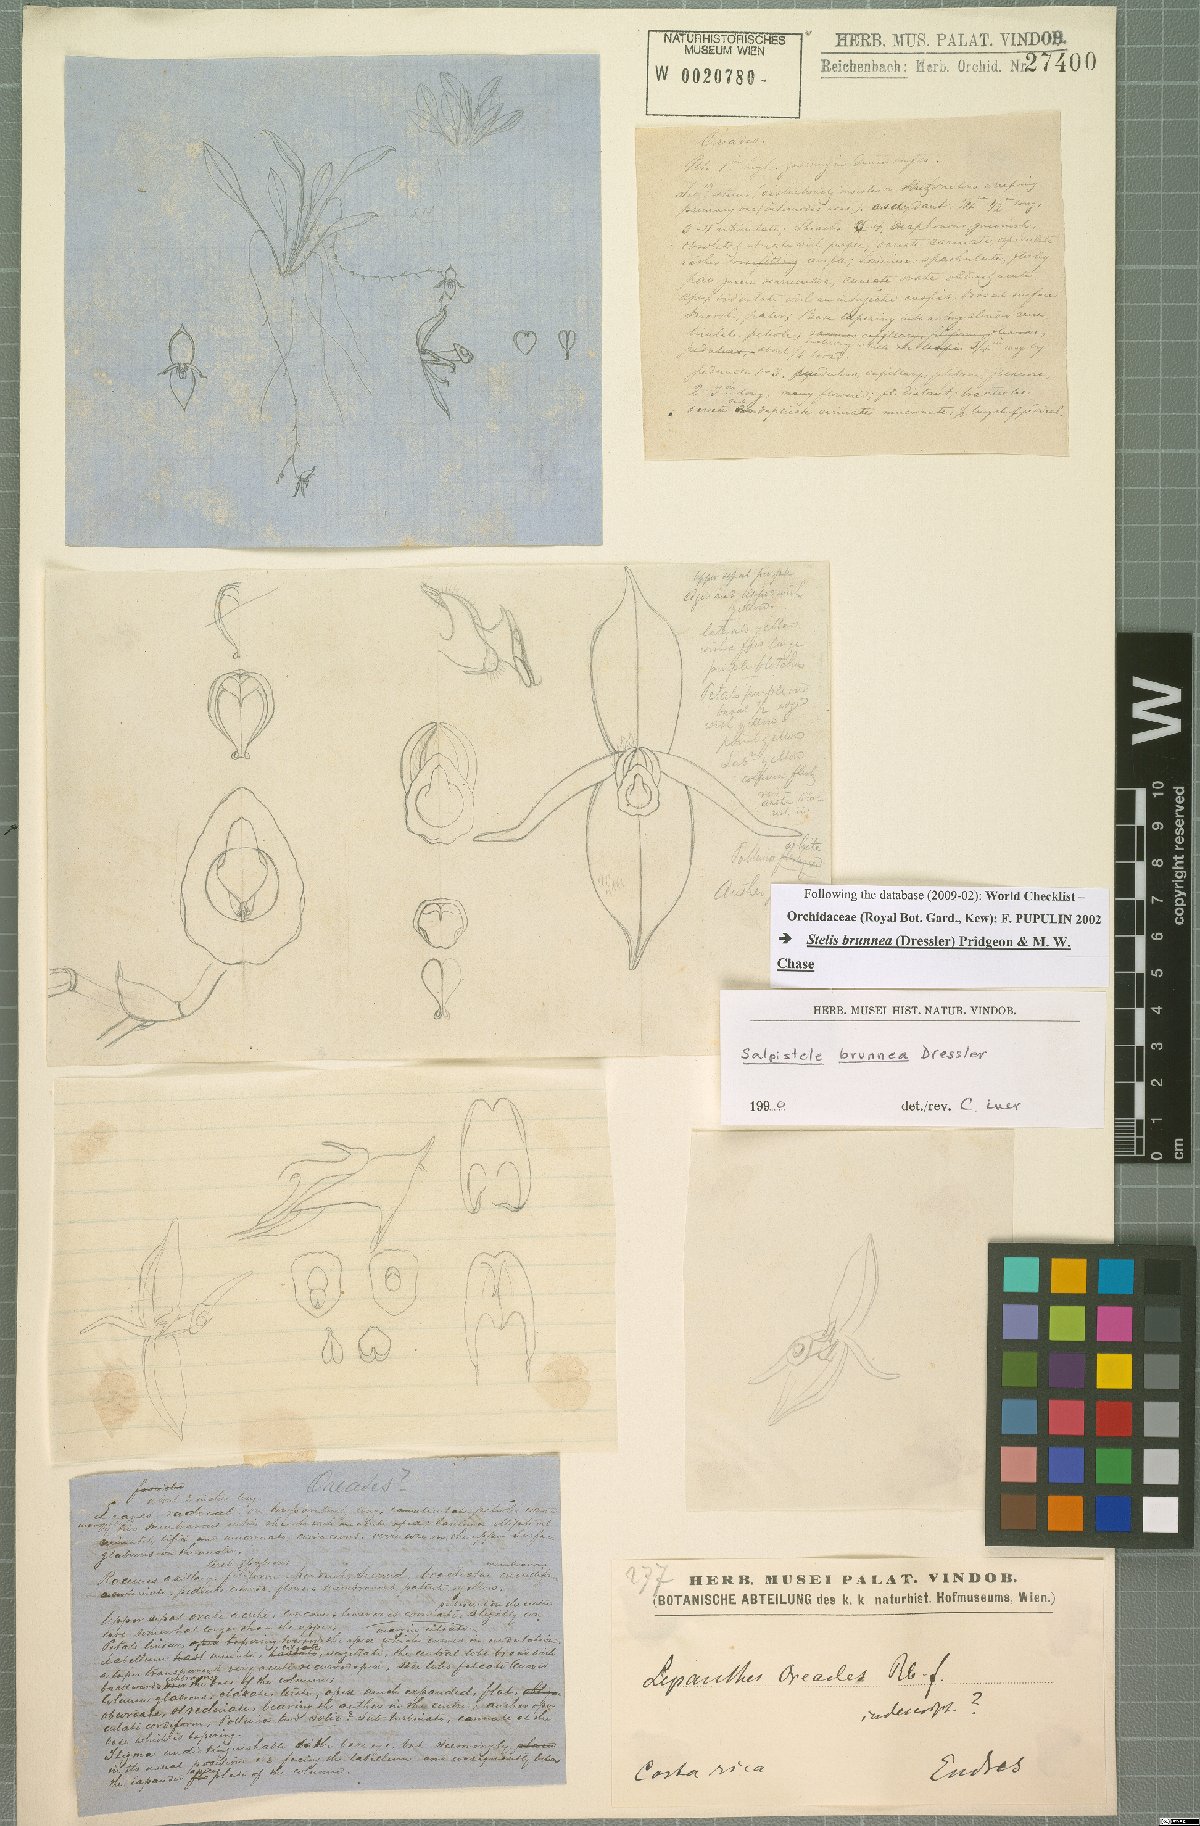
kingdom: Plantae
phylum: Tracheophyta
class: Liliopsida
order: Asparagales
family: Orchidaceae
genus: Stelis
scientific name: Stelis brunnea
